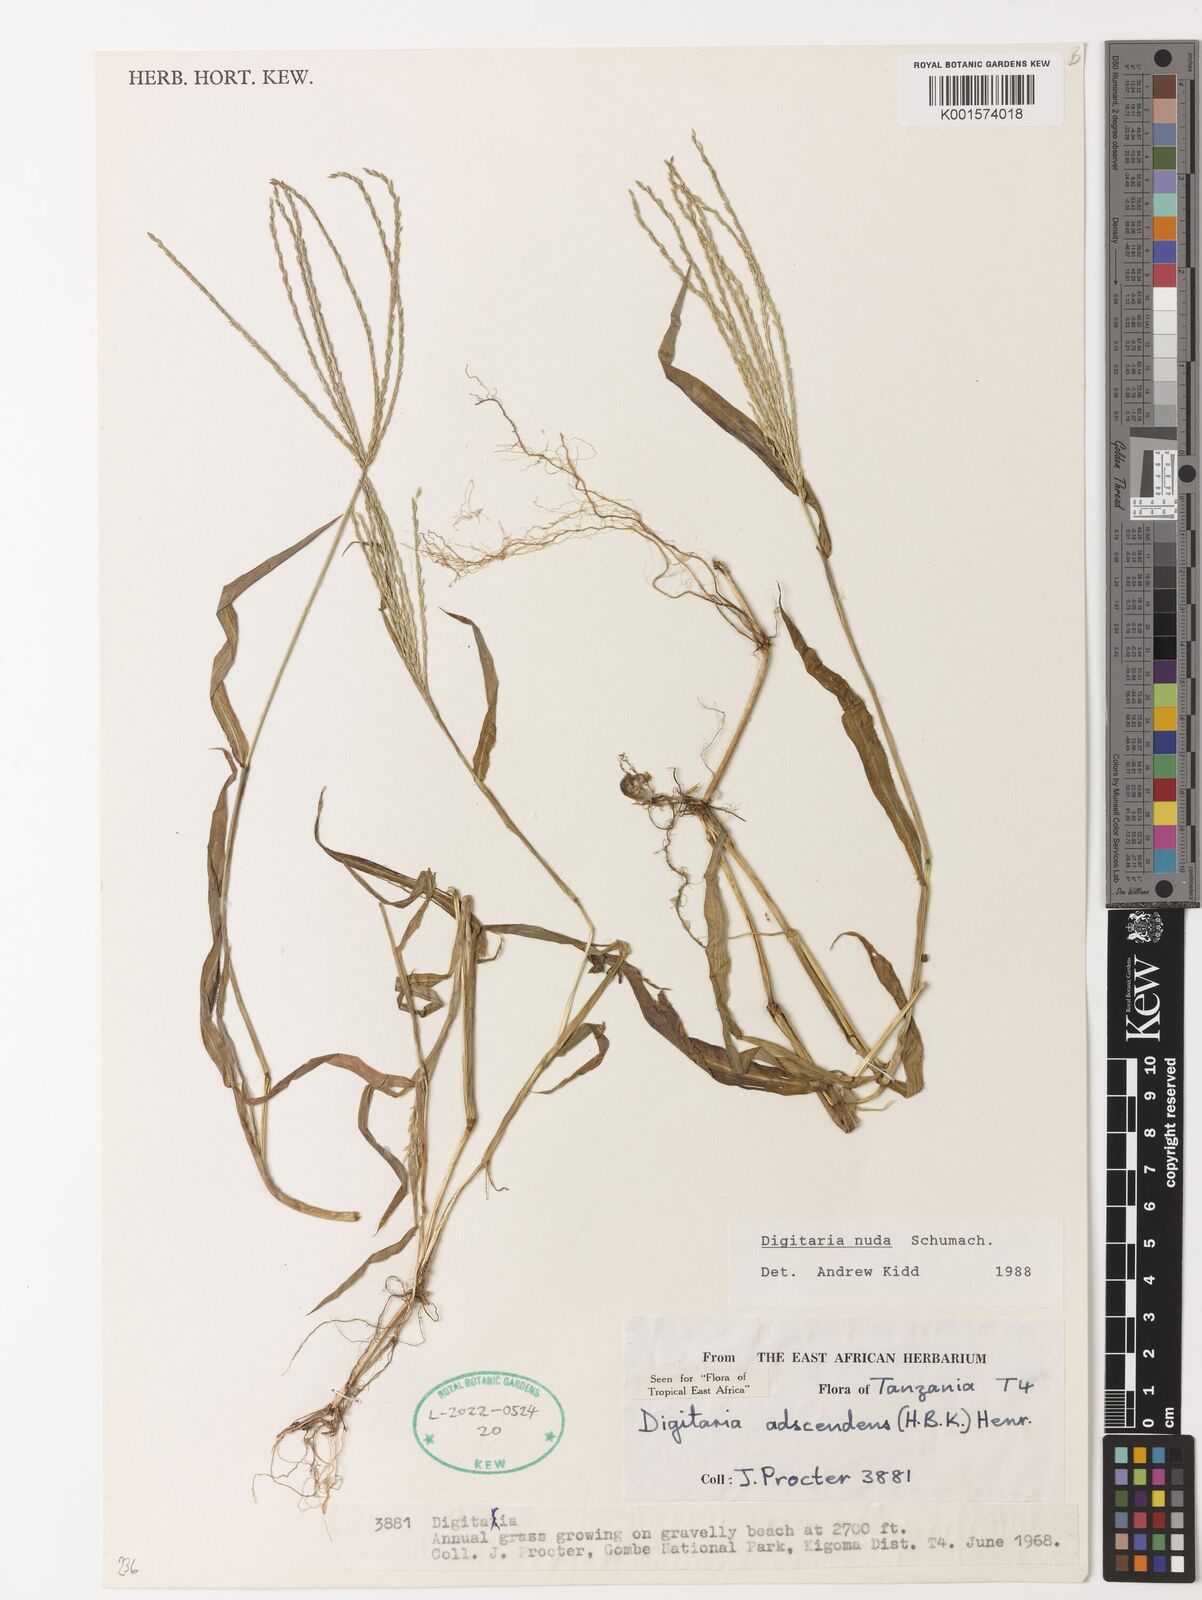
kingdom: Plantae
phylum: Tracheophyta
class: Liliopsida
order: Poales
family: Poaceae
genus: Digitaria
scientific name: Digitaria nuda
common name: Naked crabgrass
